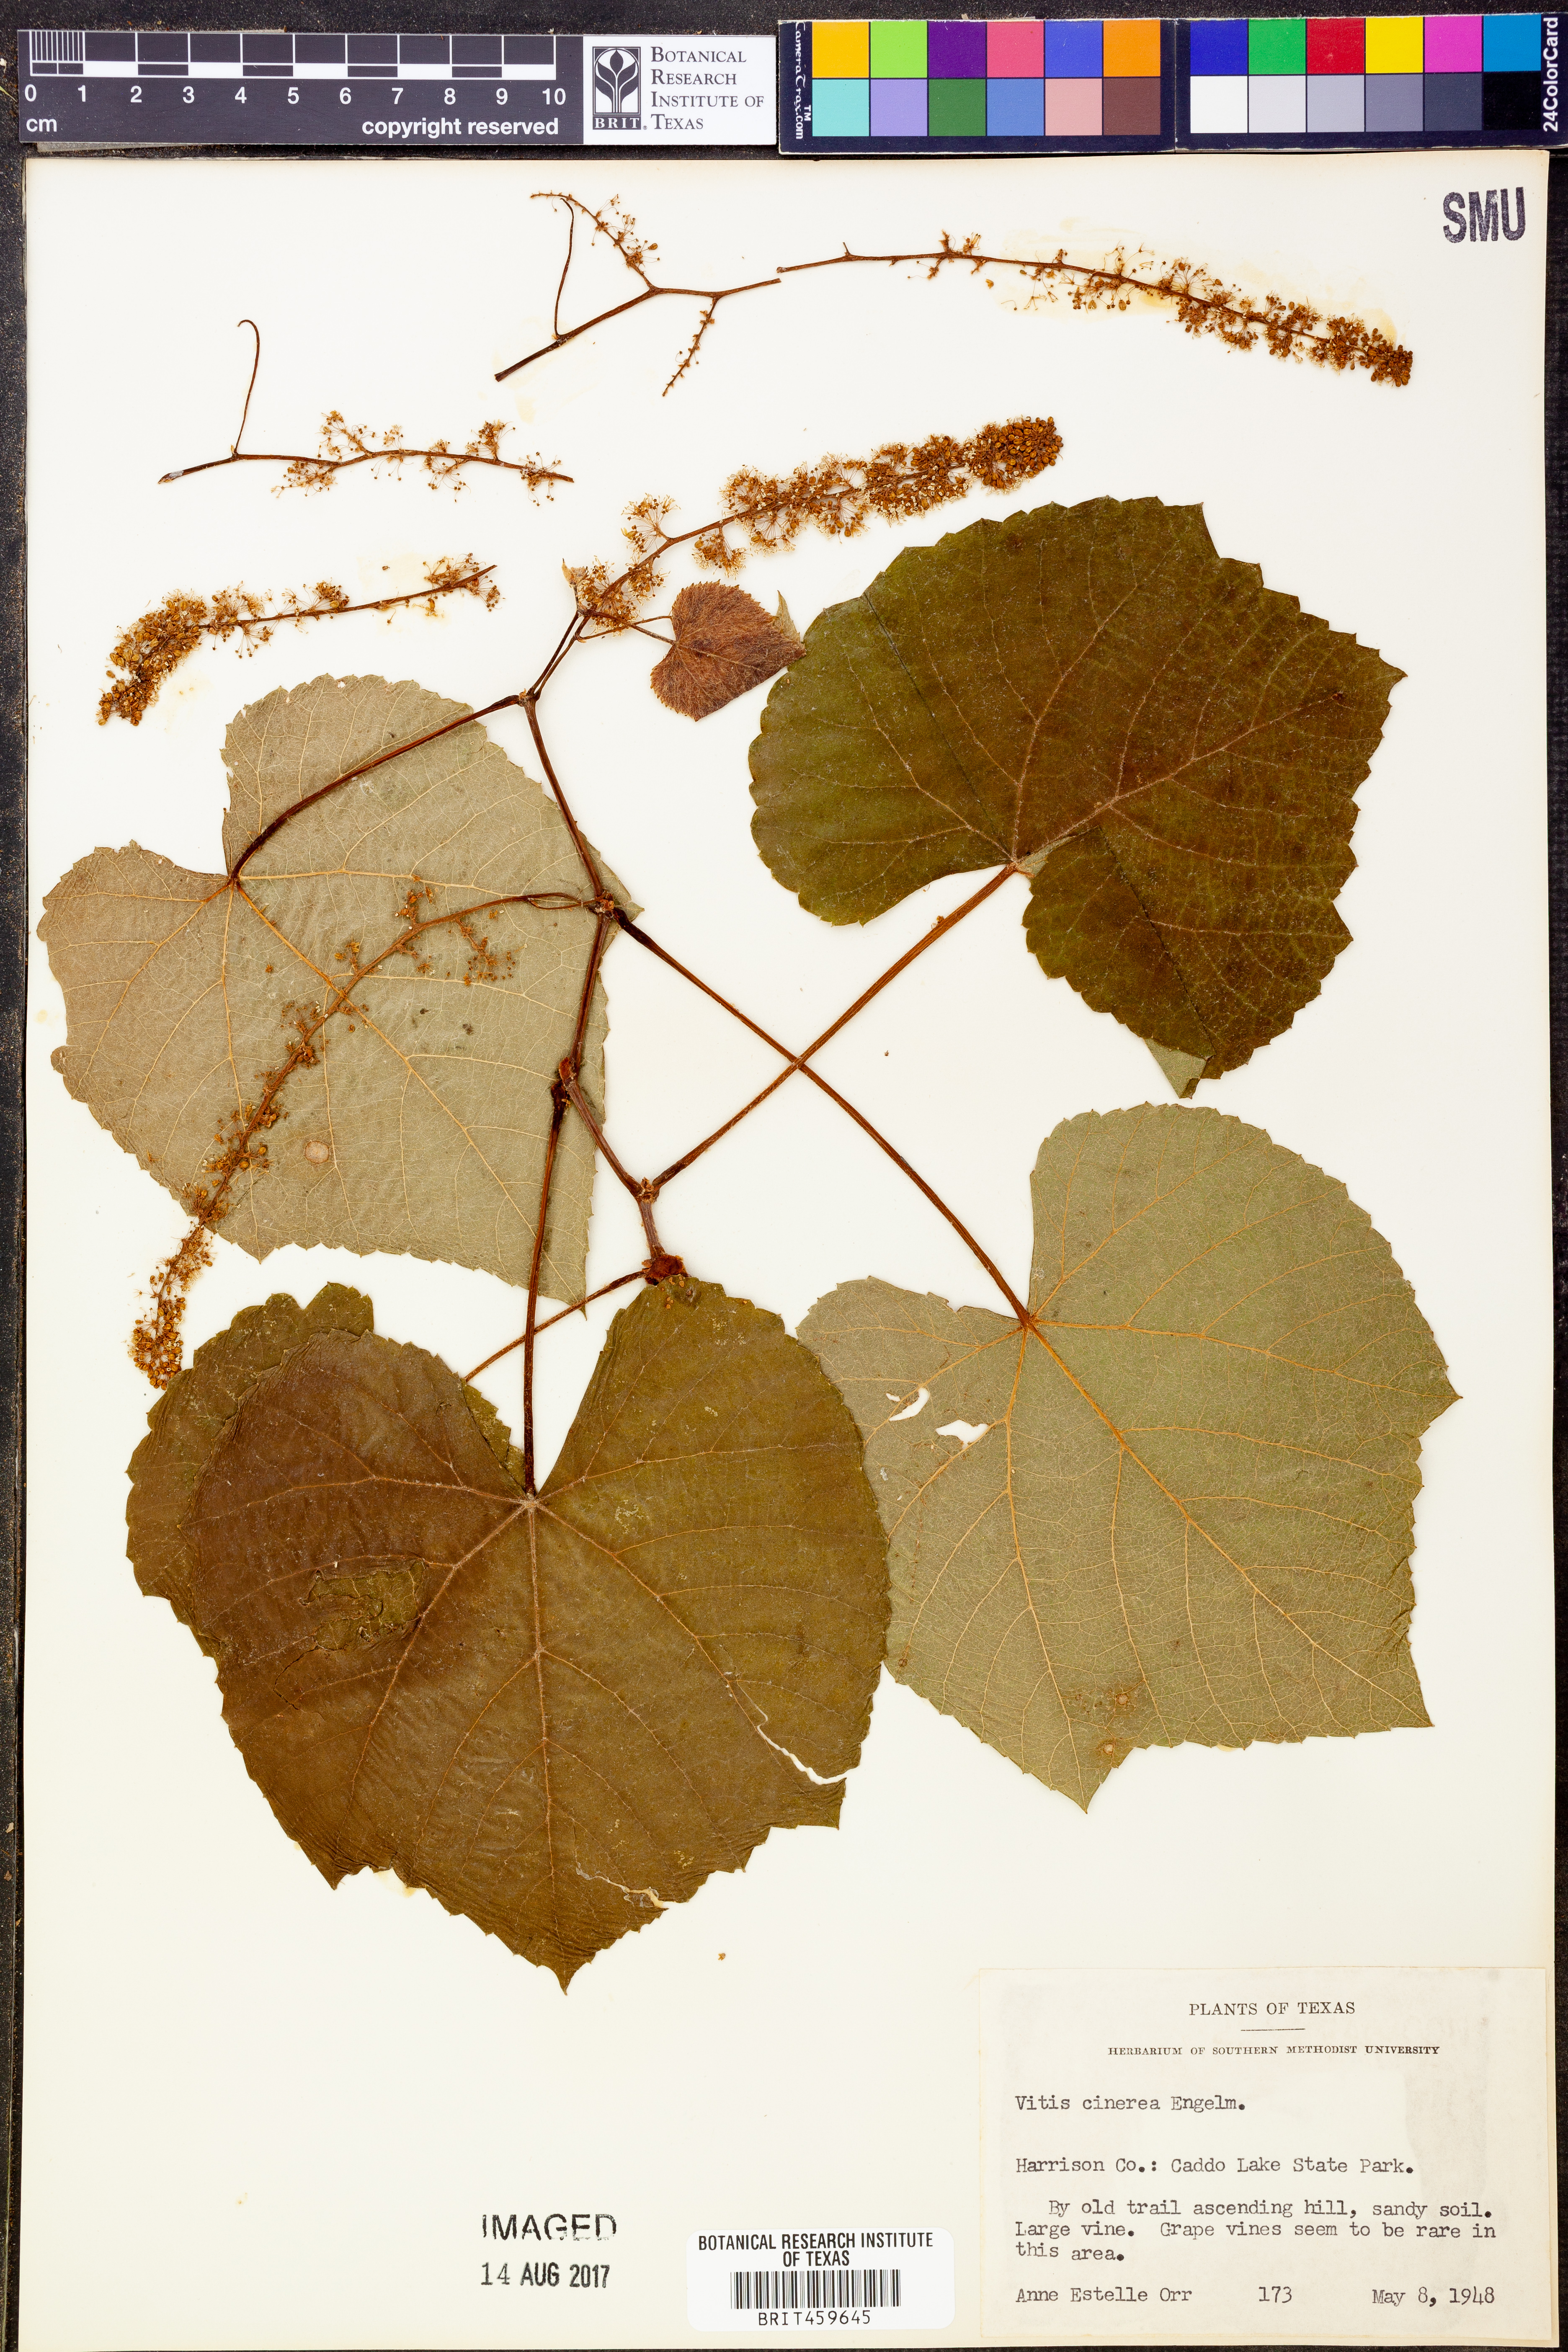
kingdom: Plantae
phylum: Tracheophyta
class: Magnoliopsida
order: Vitales
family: Vitaceae
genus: Vitis
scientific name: Vitis cinerea
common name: Ashy grape
